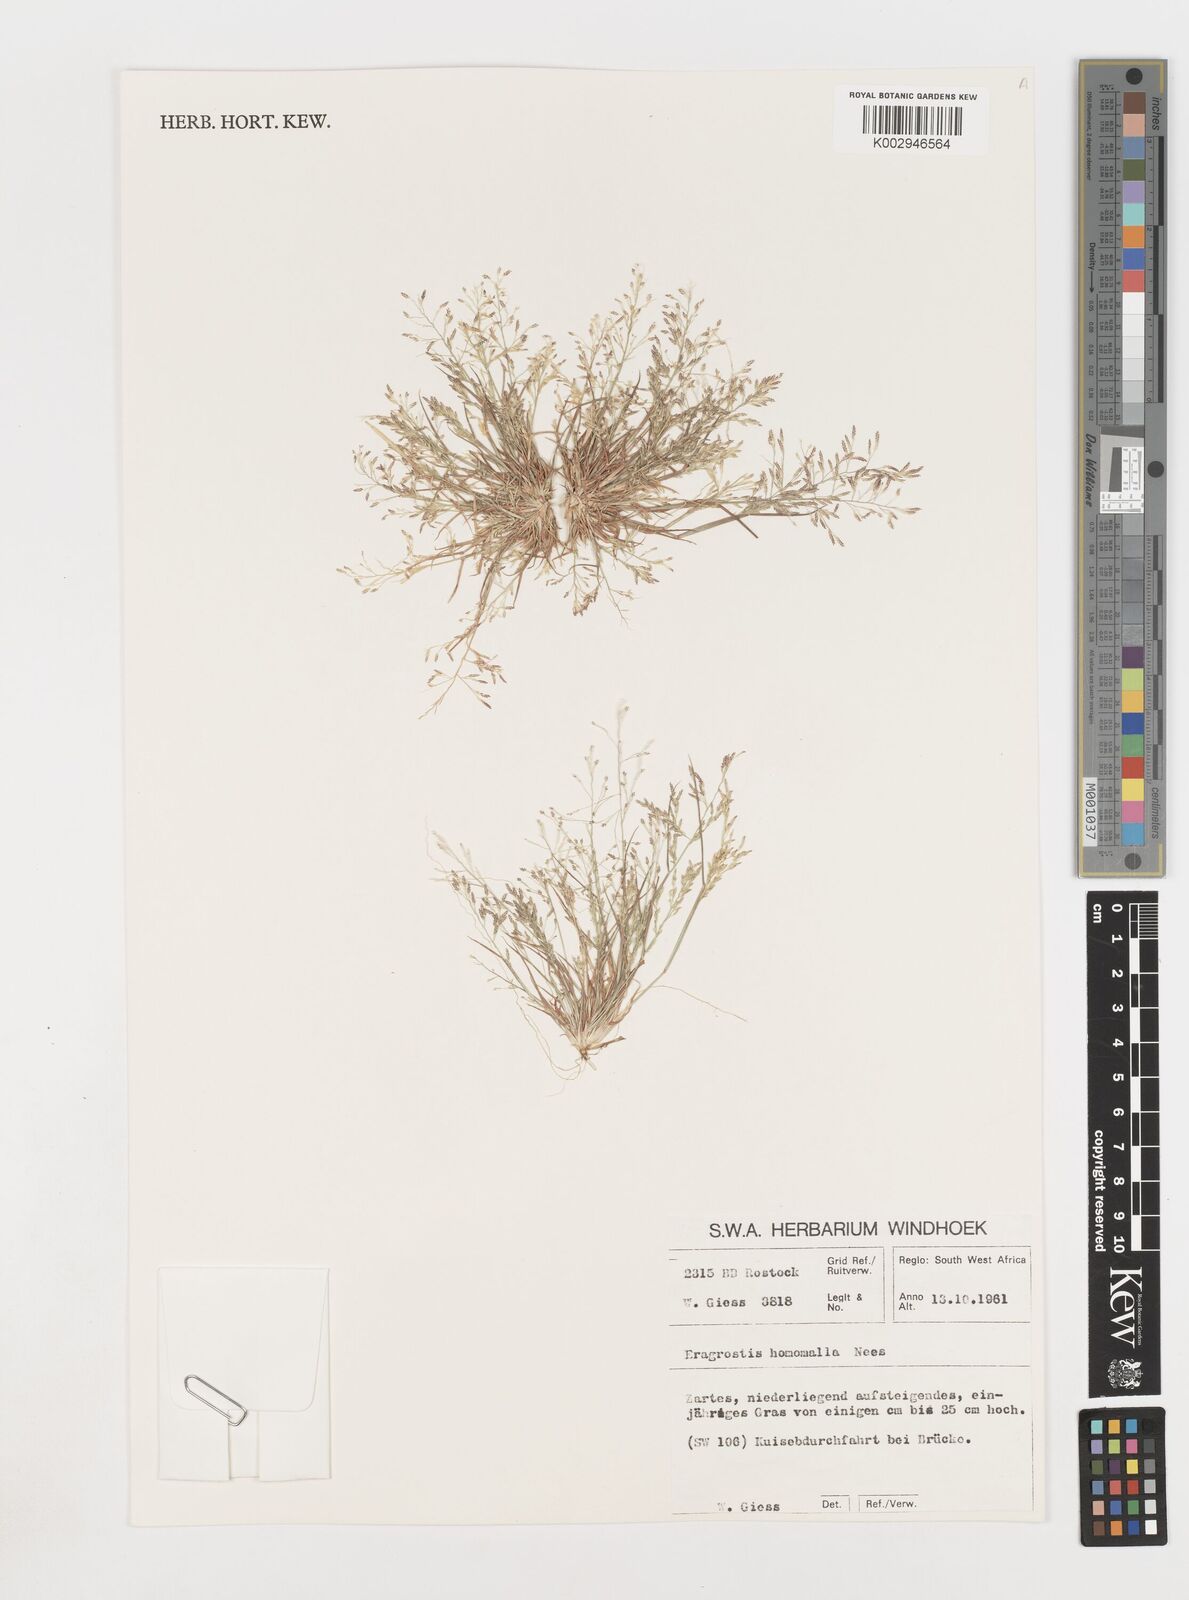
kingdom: Plantae
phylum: Tracheophyta
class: Liliopsida
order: Poales
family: Poaceae
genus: Eragrostis
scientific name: Eragrostis homomalla
